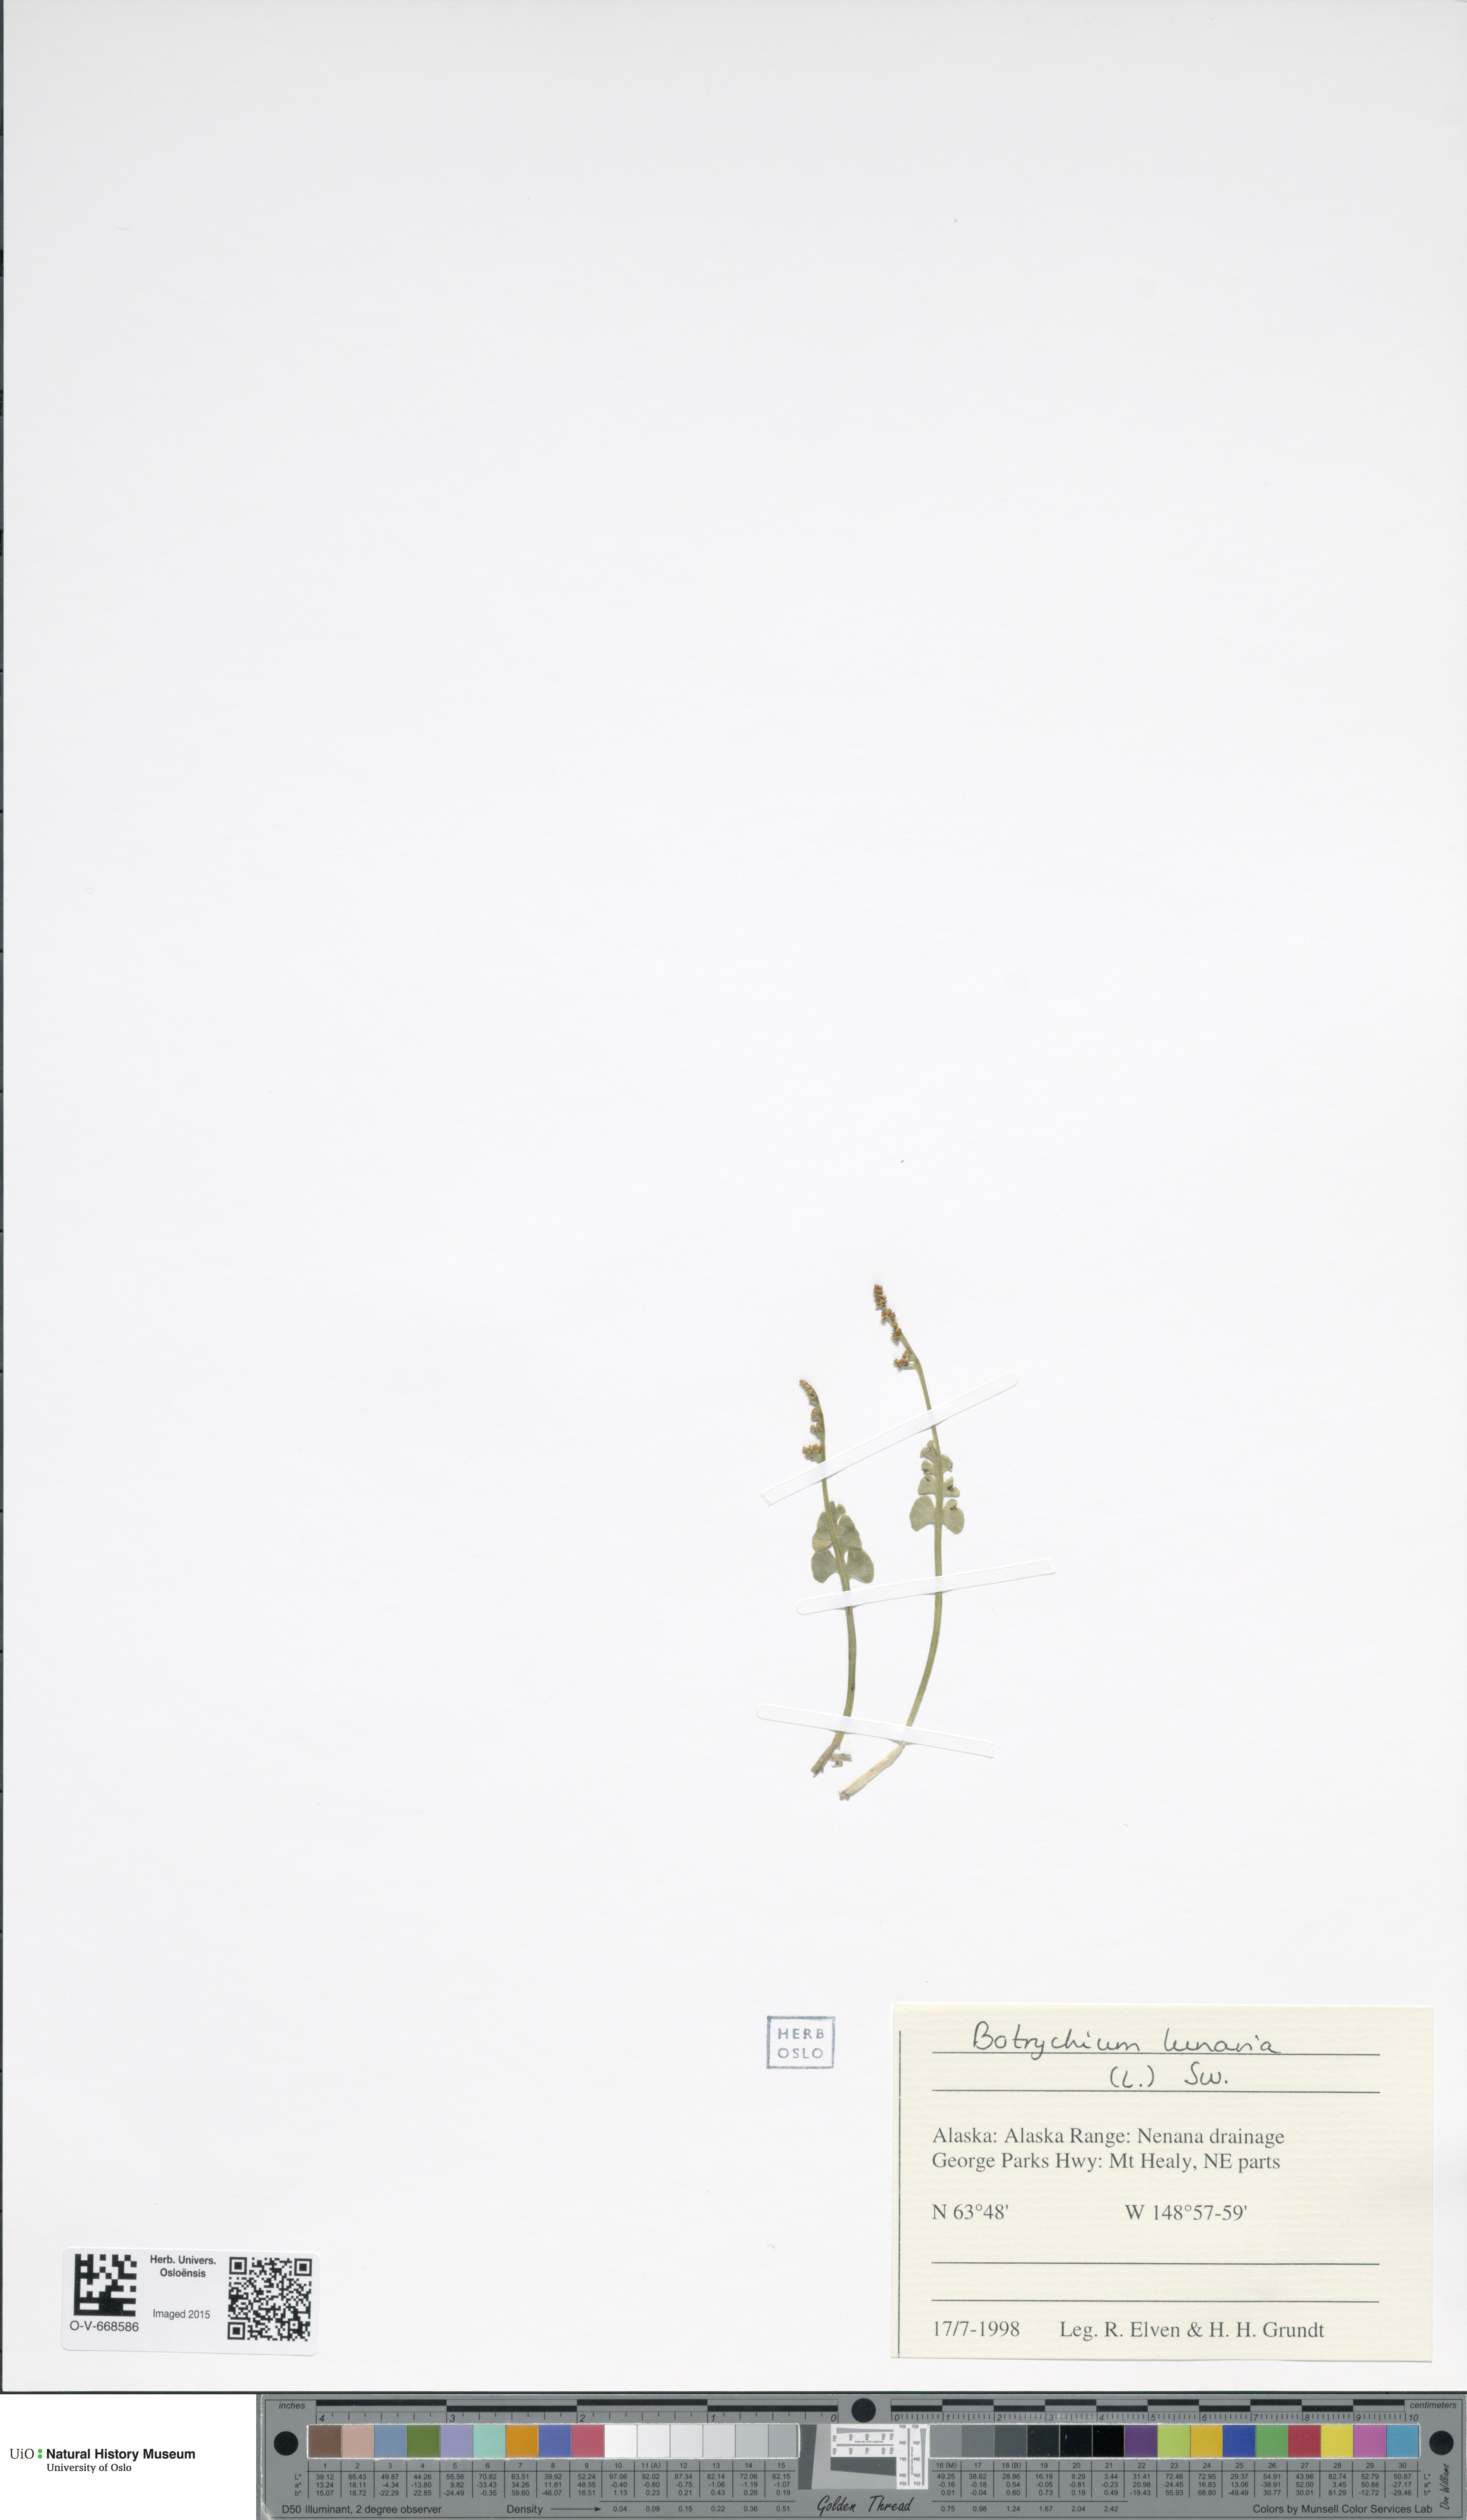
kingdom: Plantae
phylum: Tracheophyta
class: Polypodiopsida
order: Ophioglossales
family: Ophioglossaceae
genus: Botrychium
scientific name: Botrychium lunaria
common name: Moonwort
